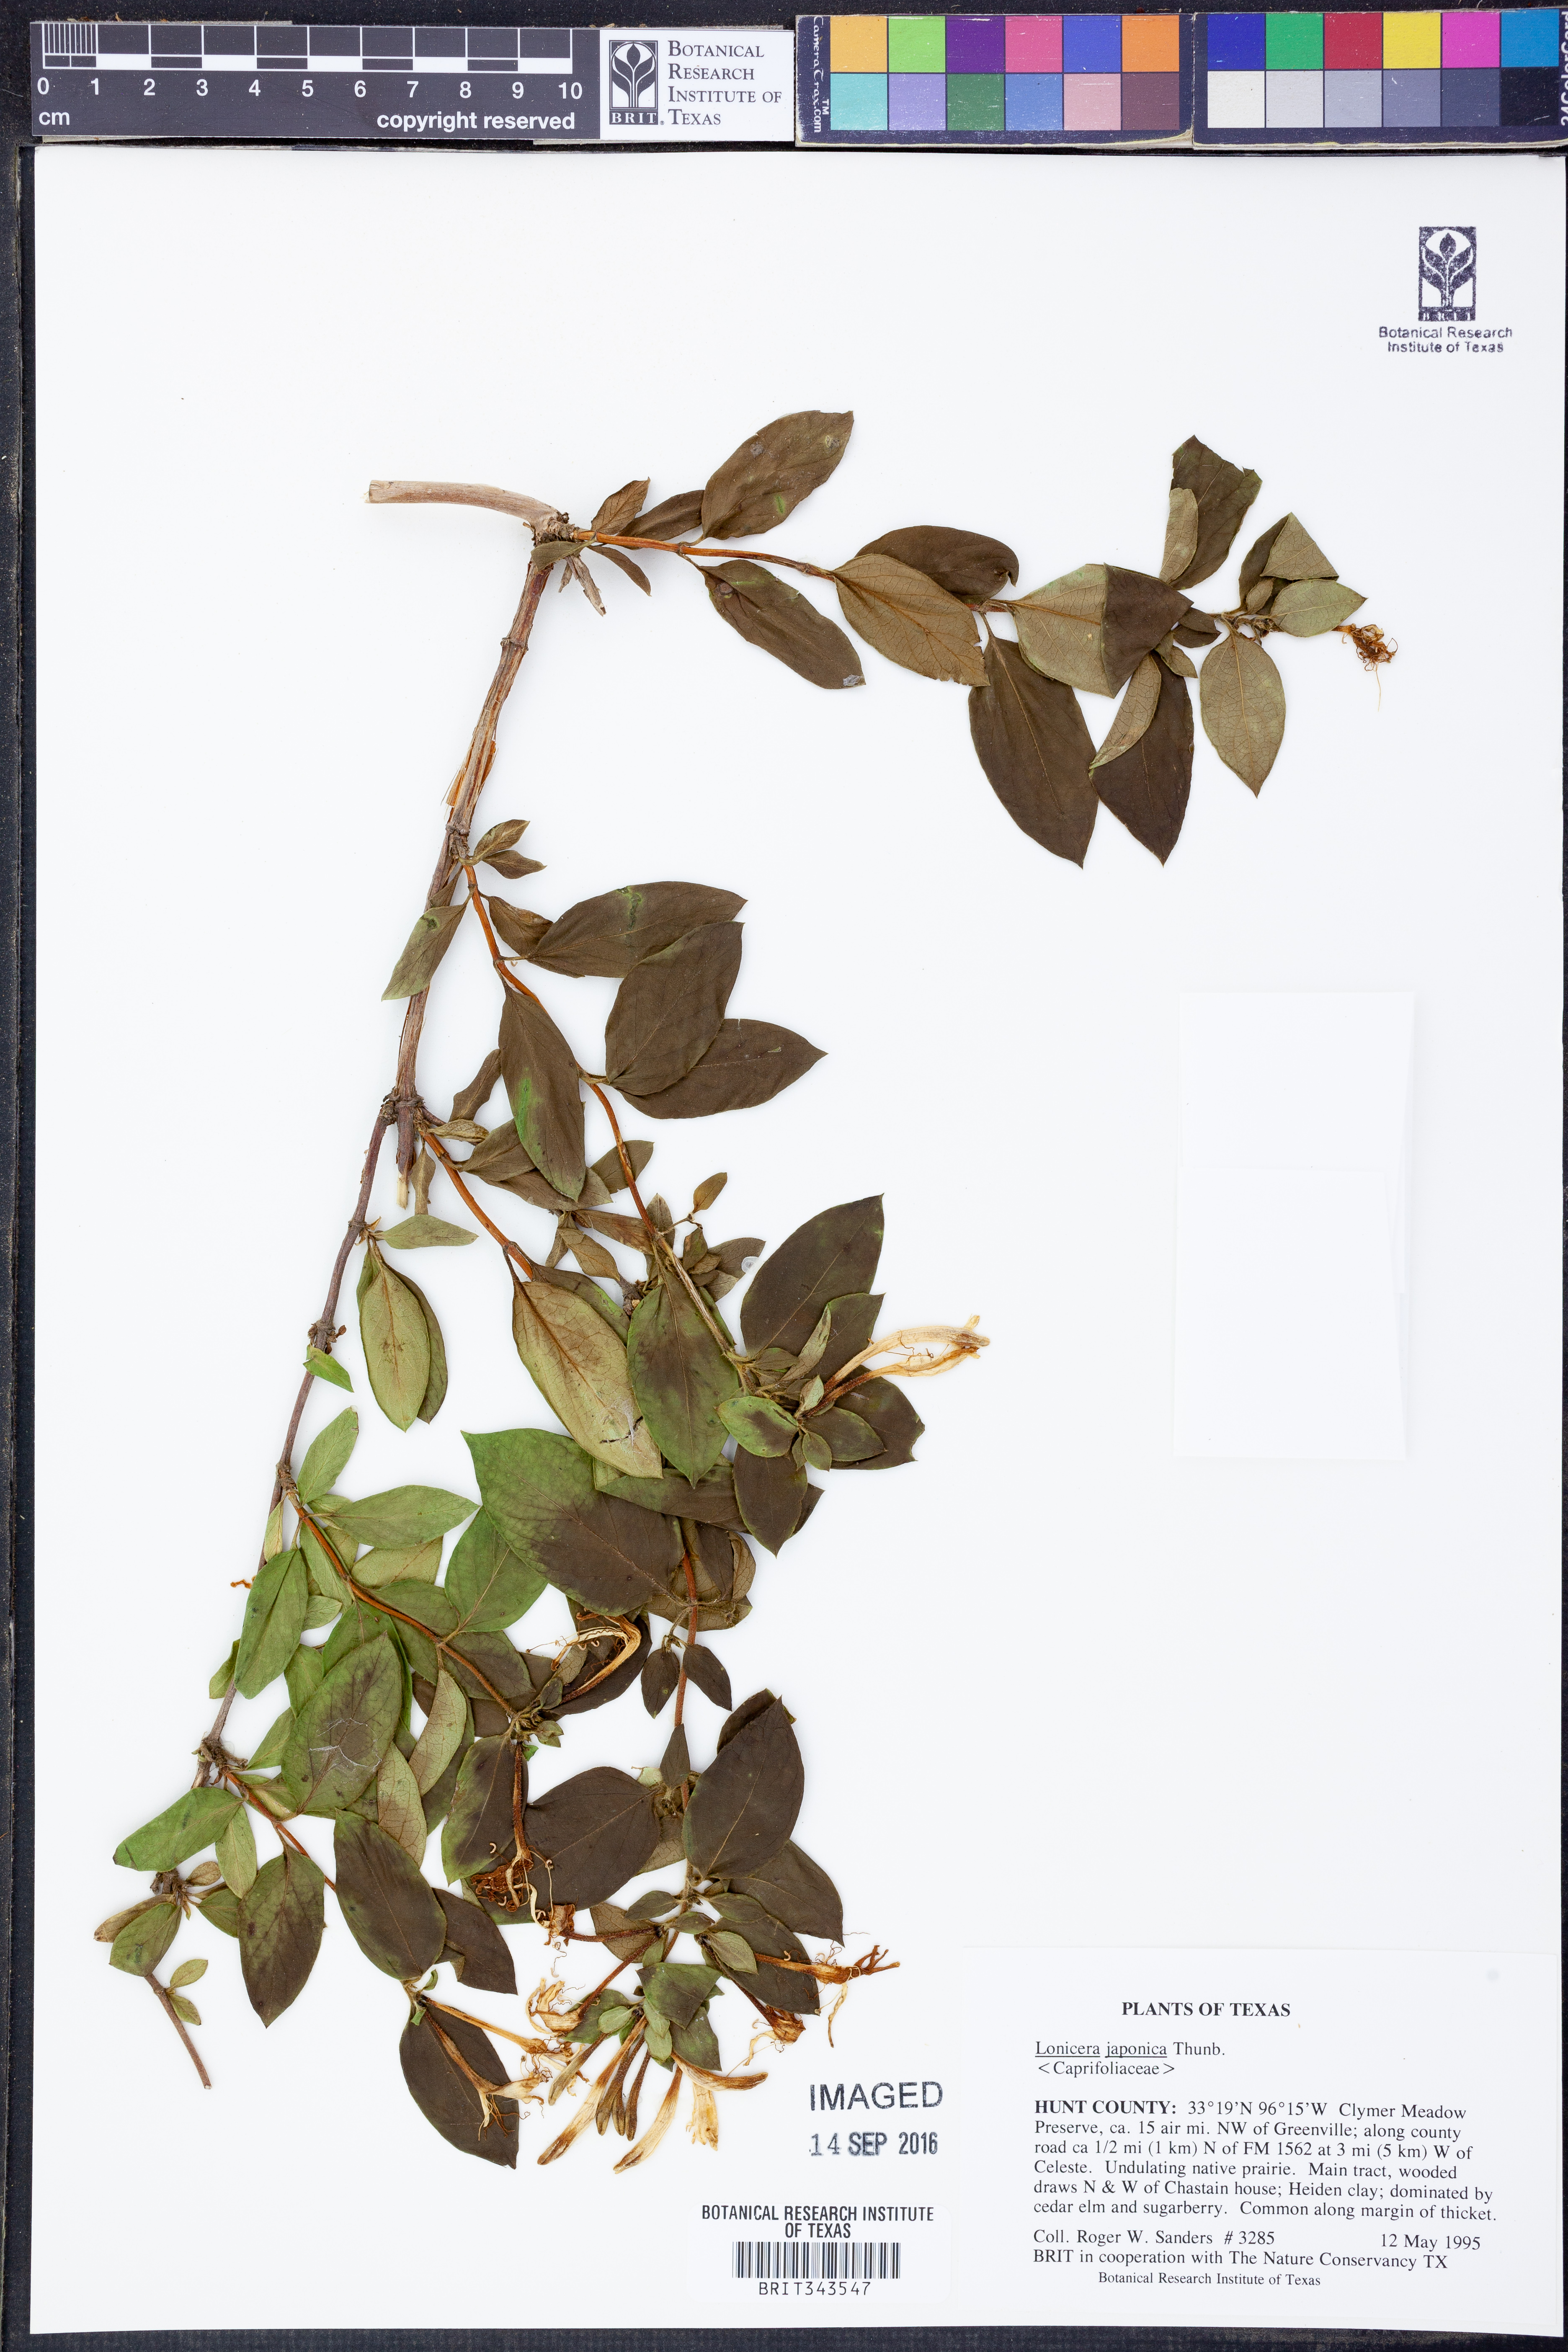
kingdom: Plantae
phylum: Tracheophyta
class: Magnoliopsida
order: Dipsacales
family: Caprifoliaceae
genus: Lonicera
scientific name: Lonicera japonica
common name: Japanese honeysuckle
